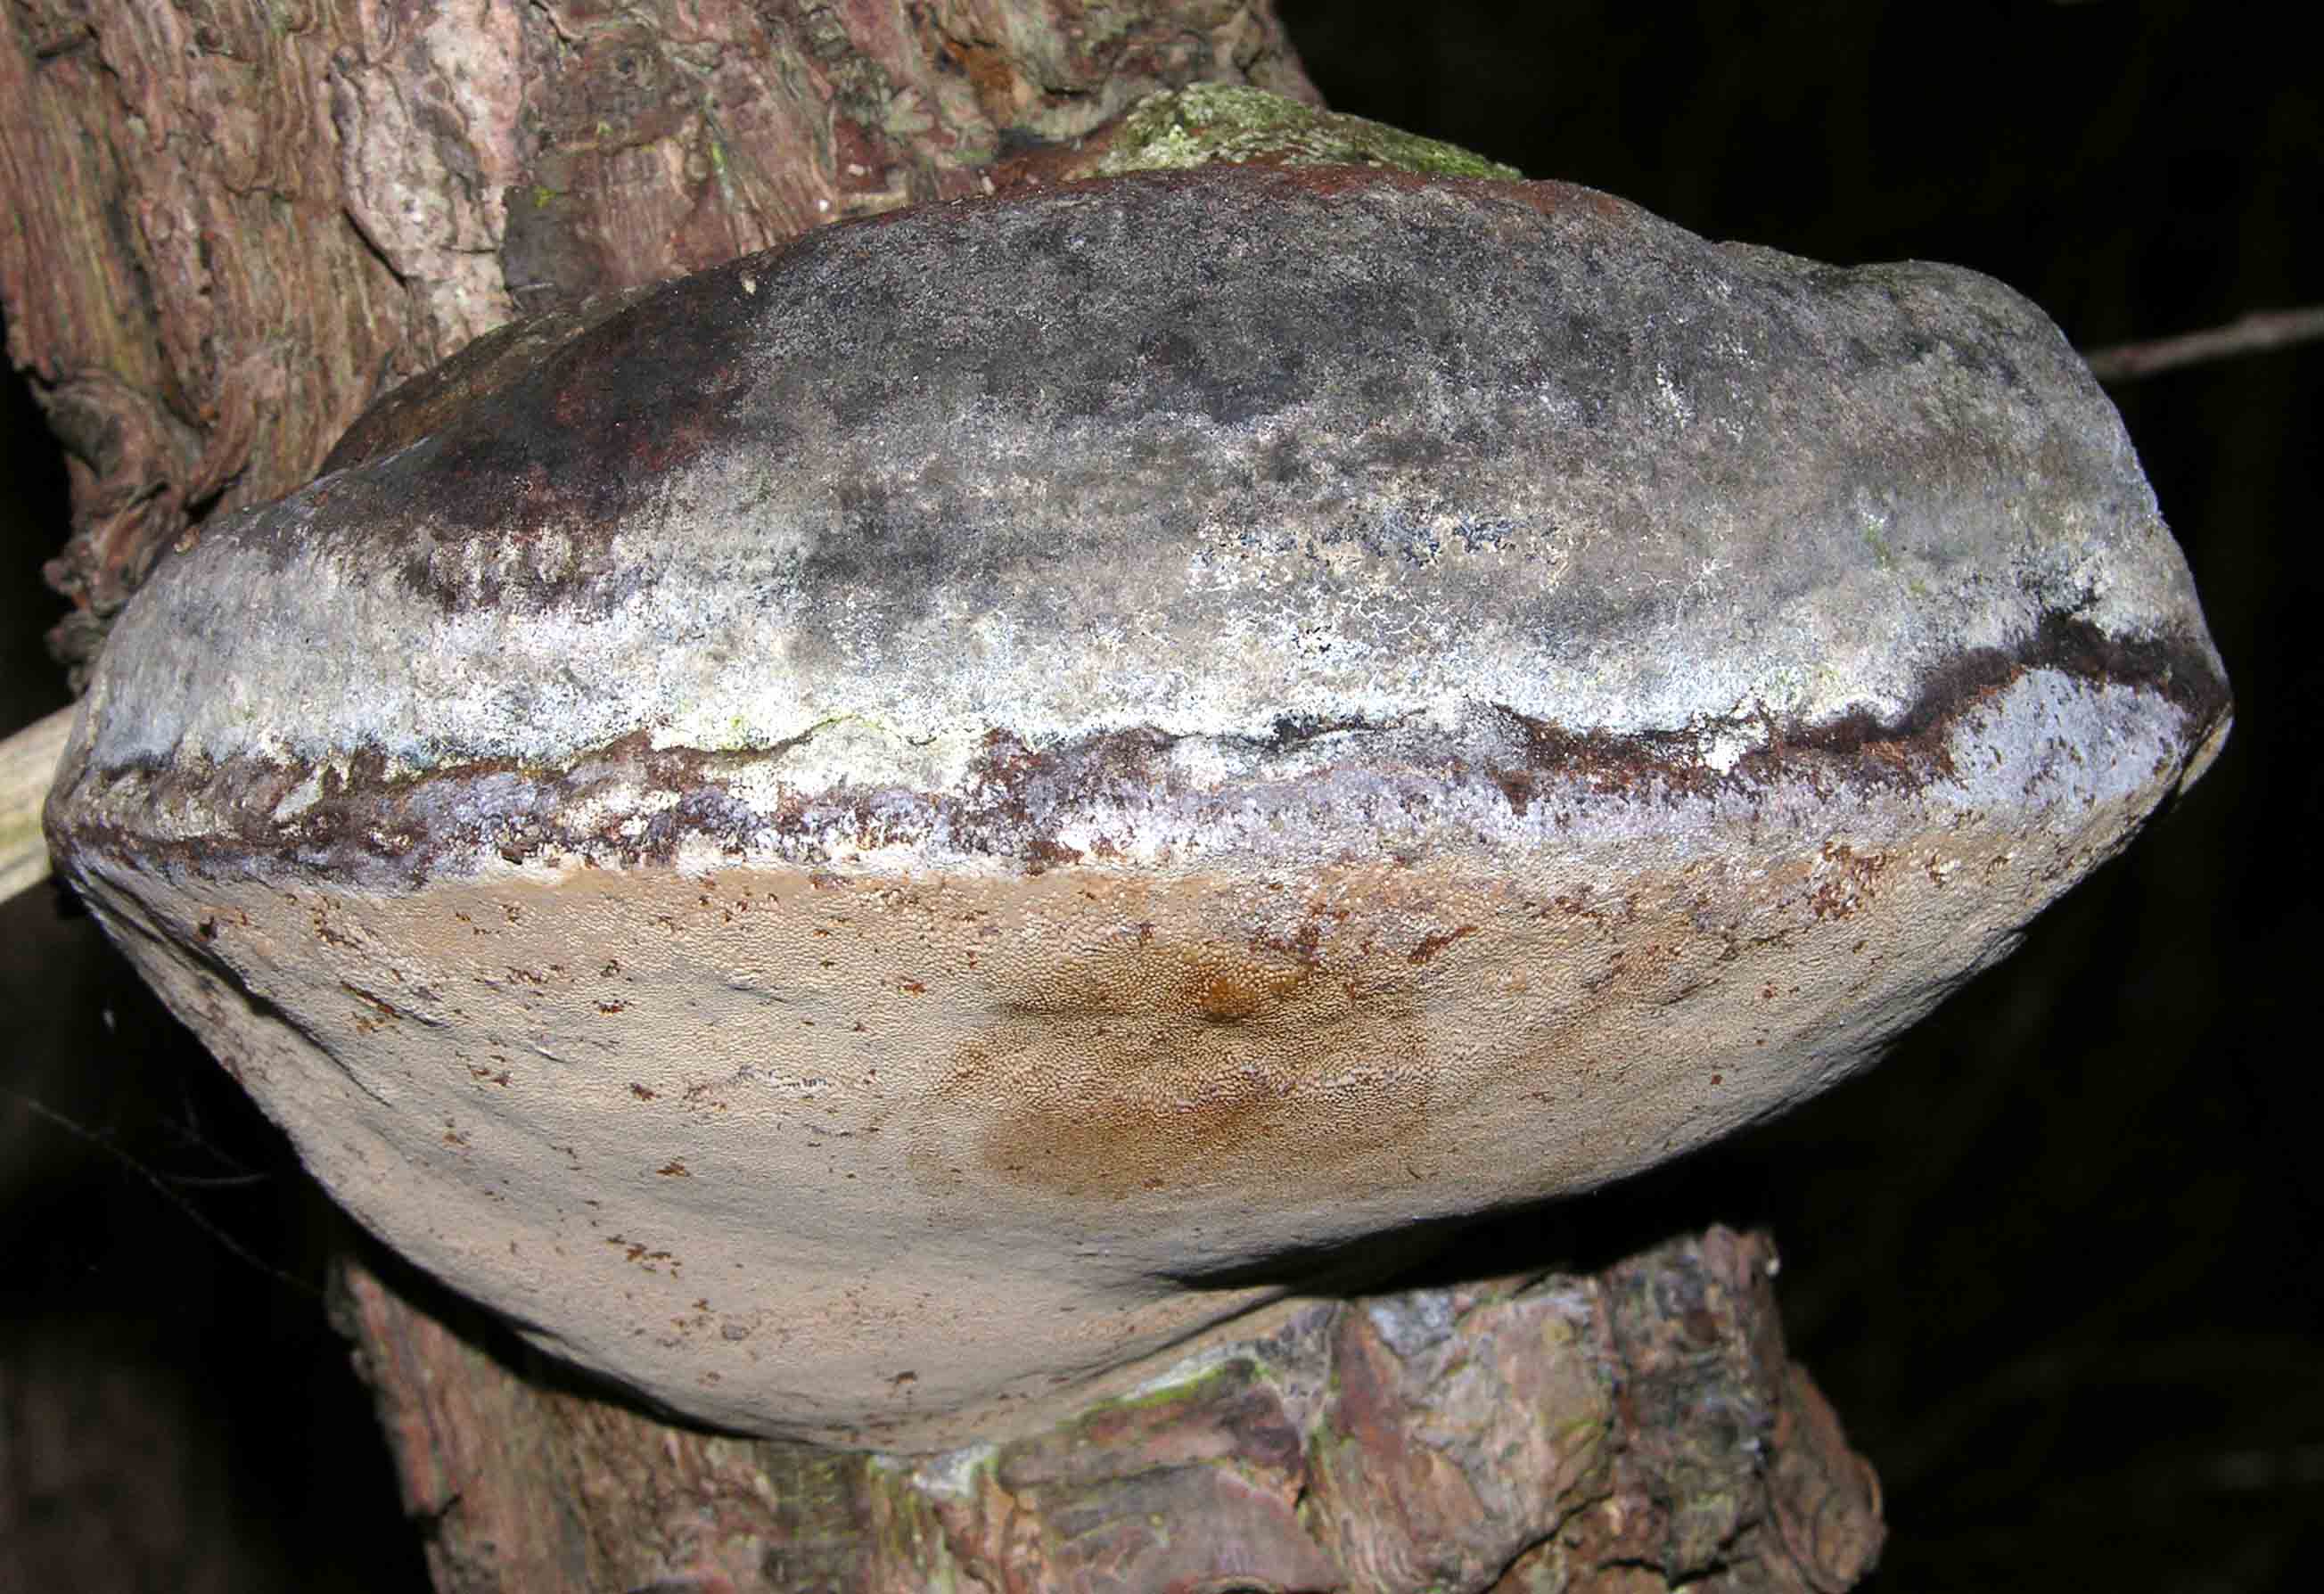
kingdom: Fungi
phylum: Basidiomycota
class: Agaricomycetes
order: Hymenochaetales
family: Hymenochaetaceae
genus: Phellinus
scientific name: Phellinus igniarius
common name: almindelig ildporesvamp
